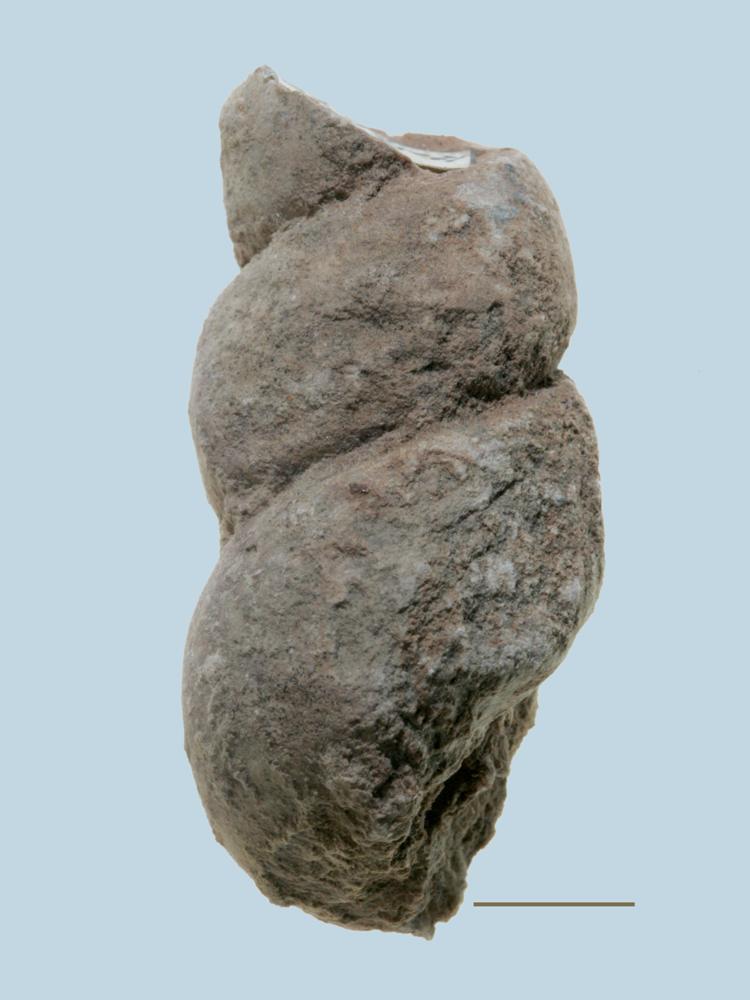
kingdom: Animalia
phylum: Mollusca
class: Gastropoda
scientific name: Gastropoda
